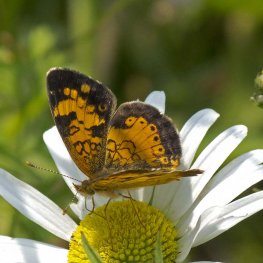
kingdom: Animalia
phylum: Arthropoda
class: Insecta
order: Lepidoptera
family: Nymphalidae
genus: Phyciodes
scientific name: Phyciodes tharos
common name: Northern Crescent
